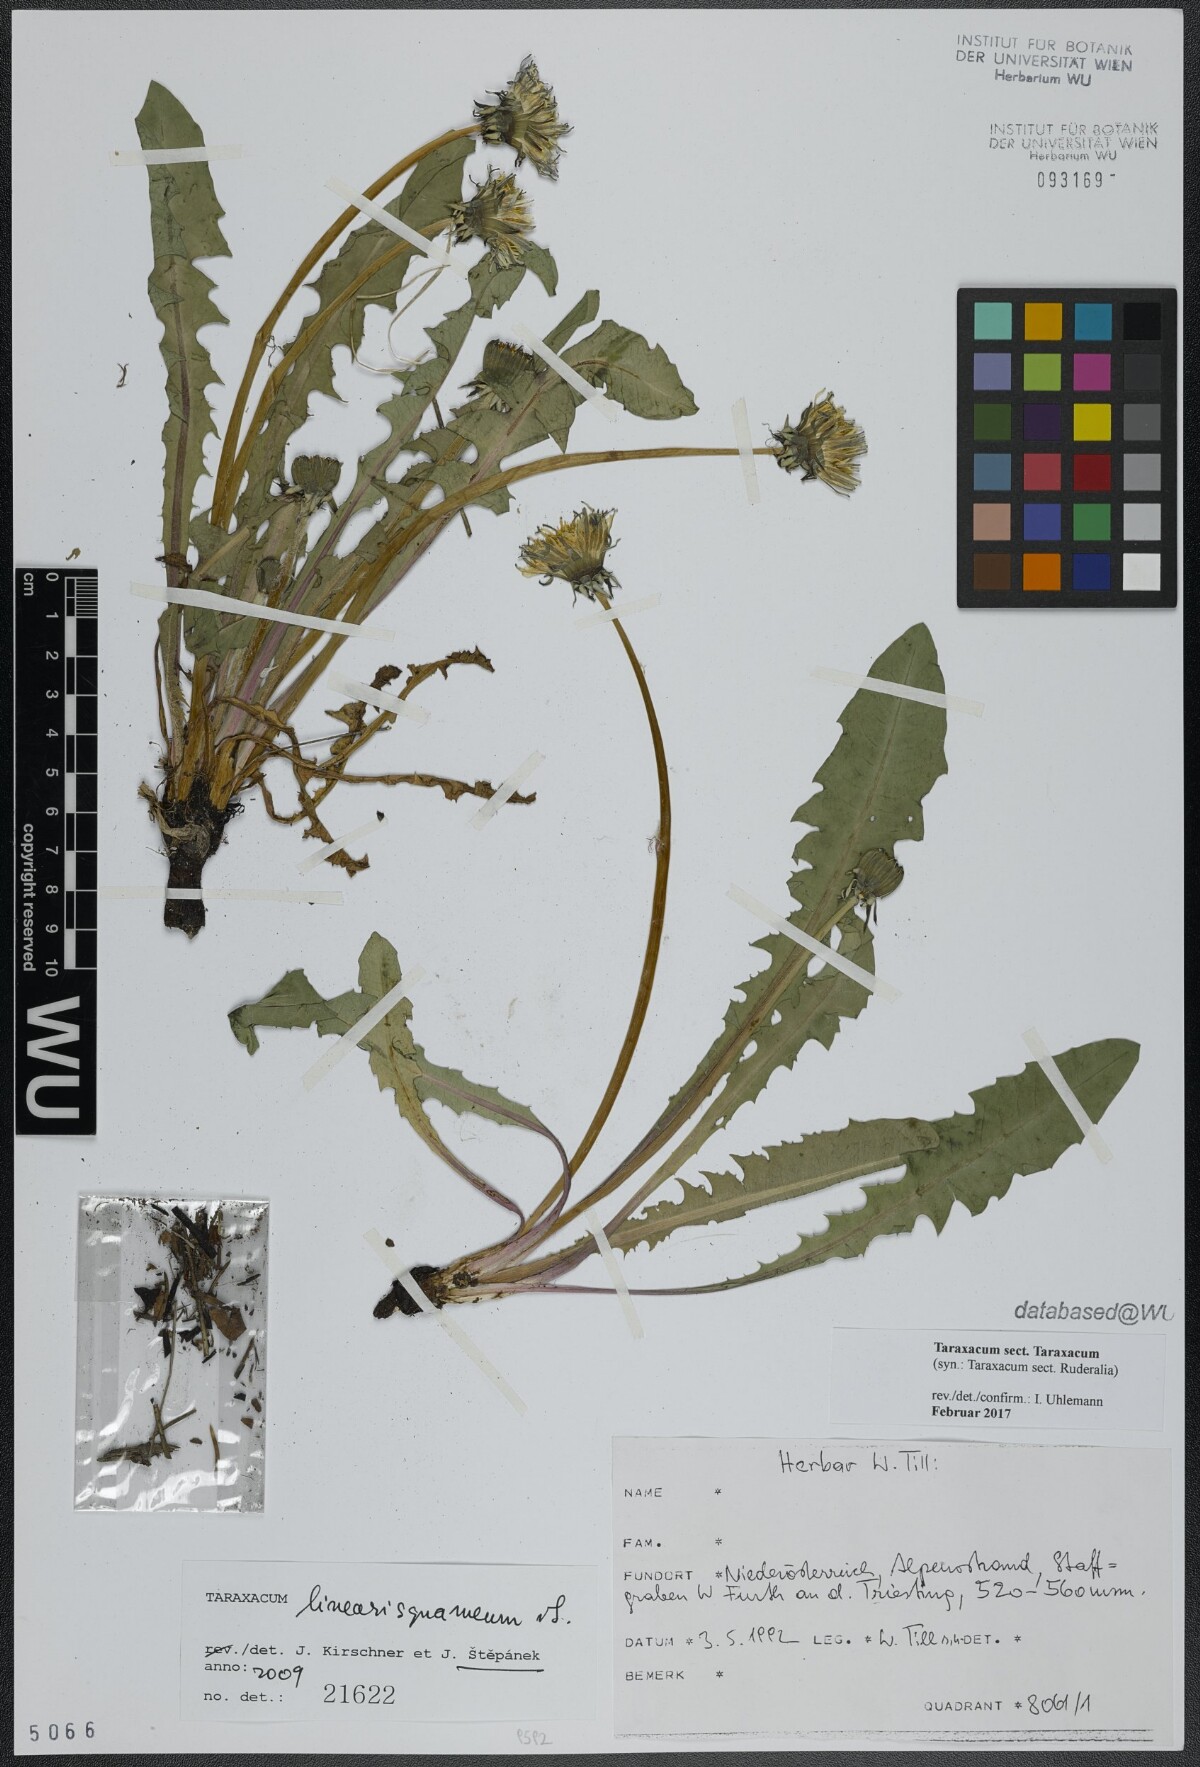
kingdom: Plantae
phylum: Tracheophyta
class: Magnoliopsida
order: Asterales
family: Asteraceae
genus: Taraxacum
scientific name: Taraxacum
